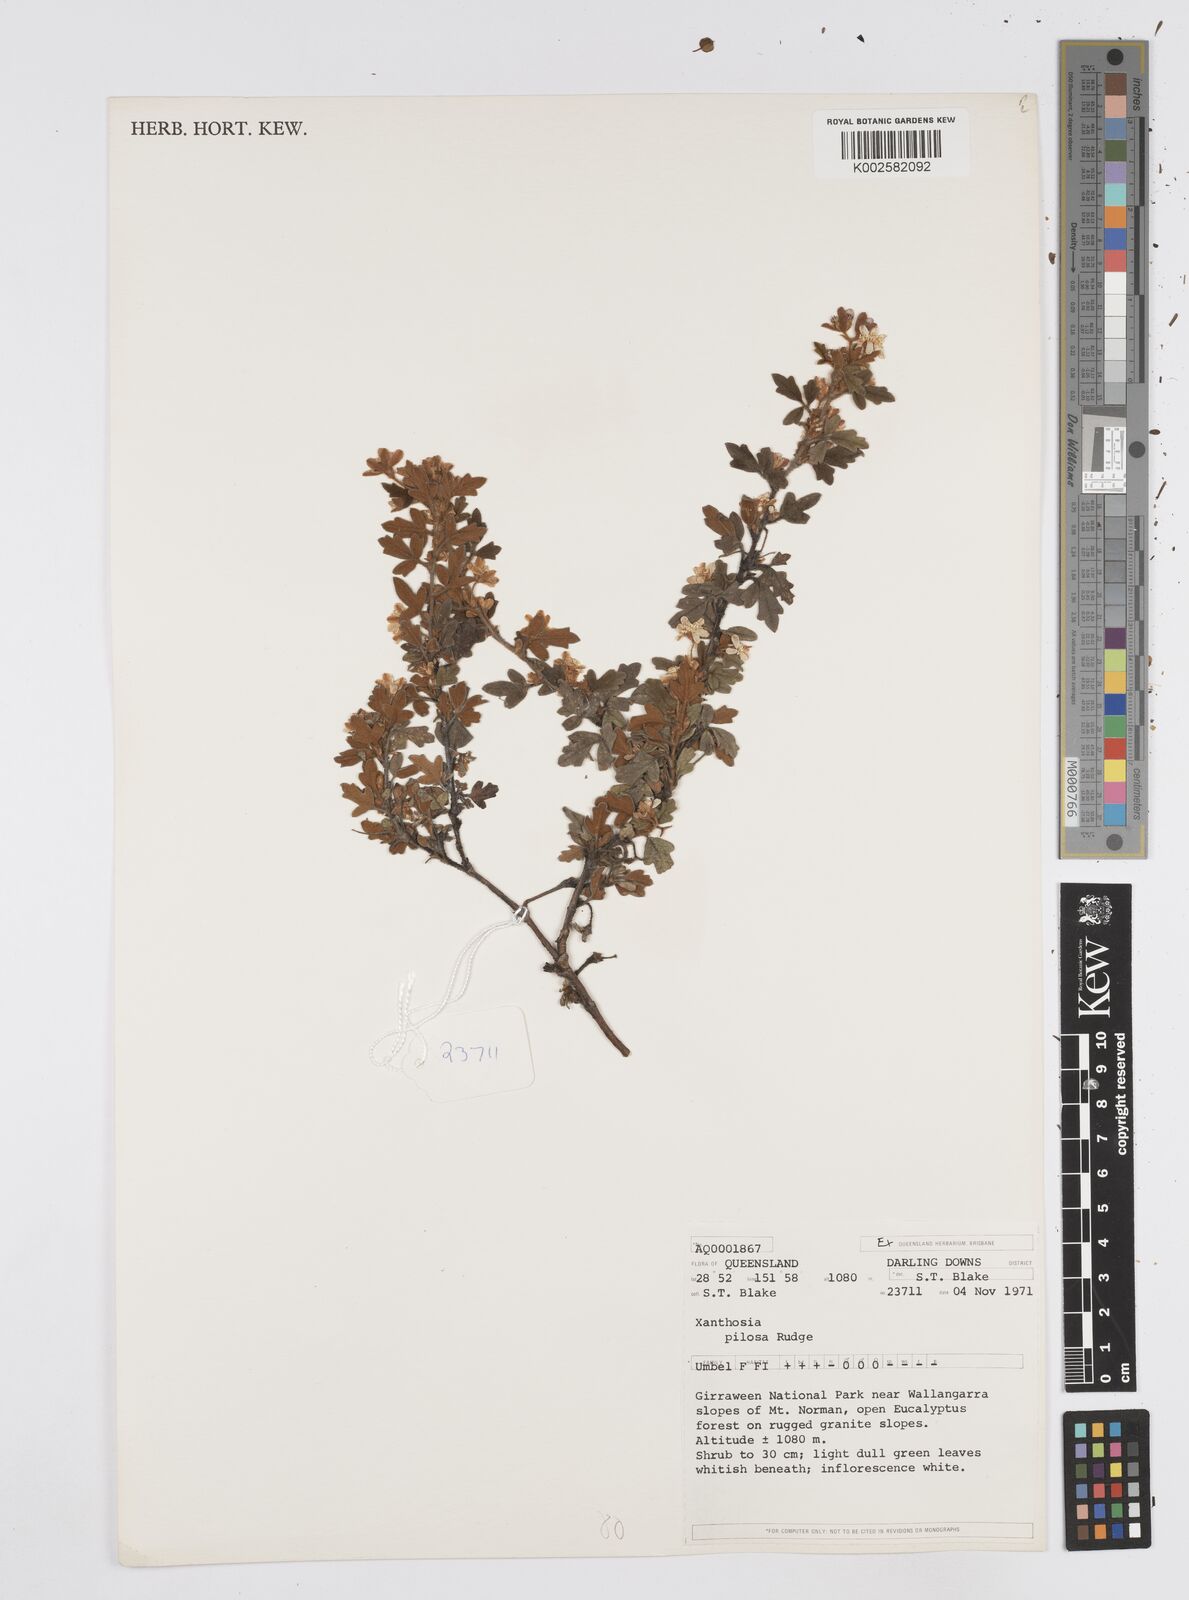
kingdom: Plantae
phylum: Tracheophyta
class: Magnoliopsida
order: Apiales
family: Apiaceae
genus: Xanthosia
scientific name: Xanthosia pilosa
